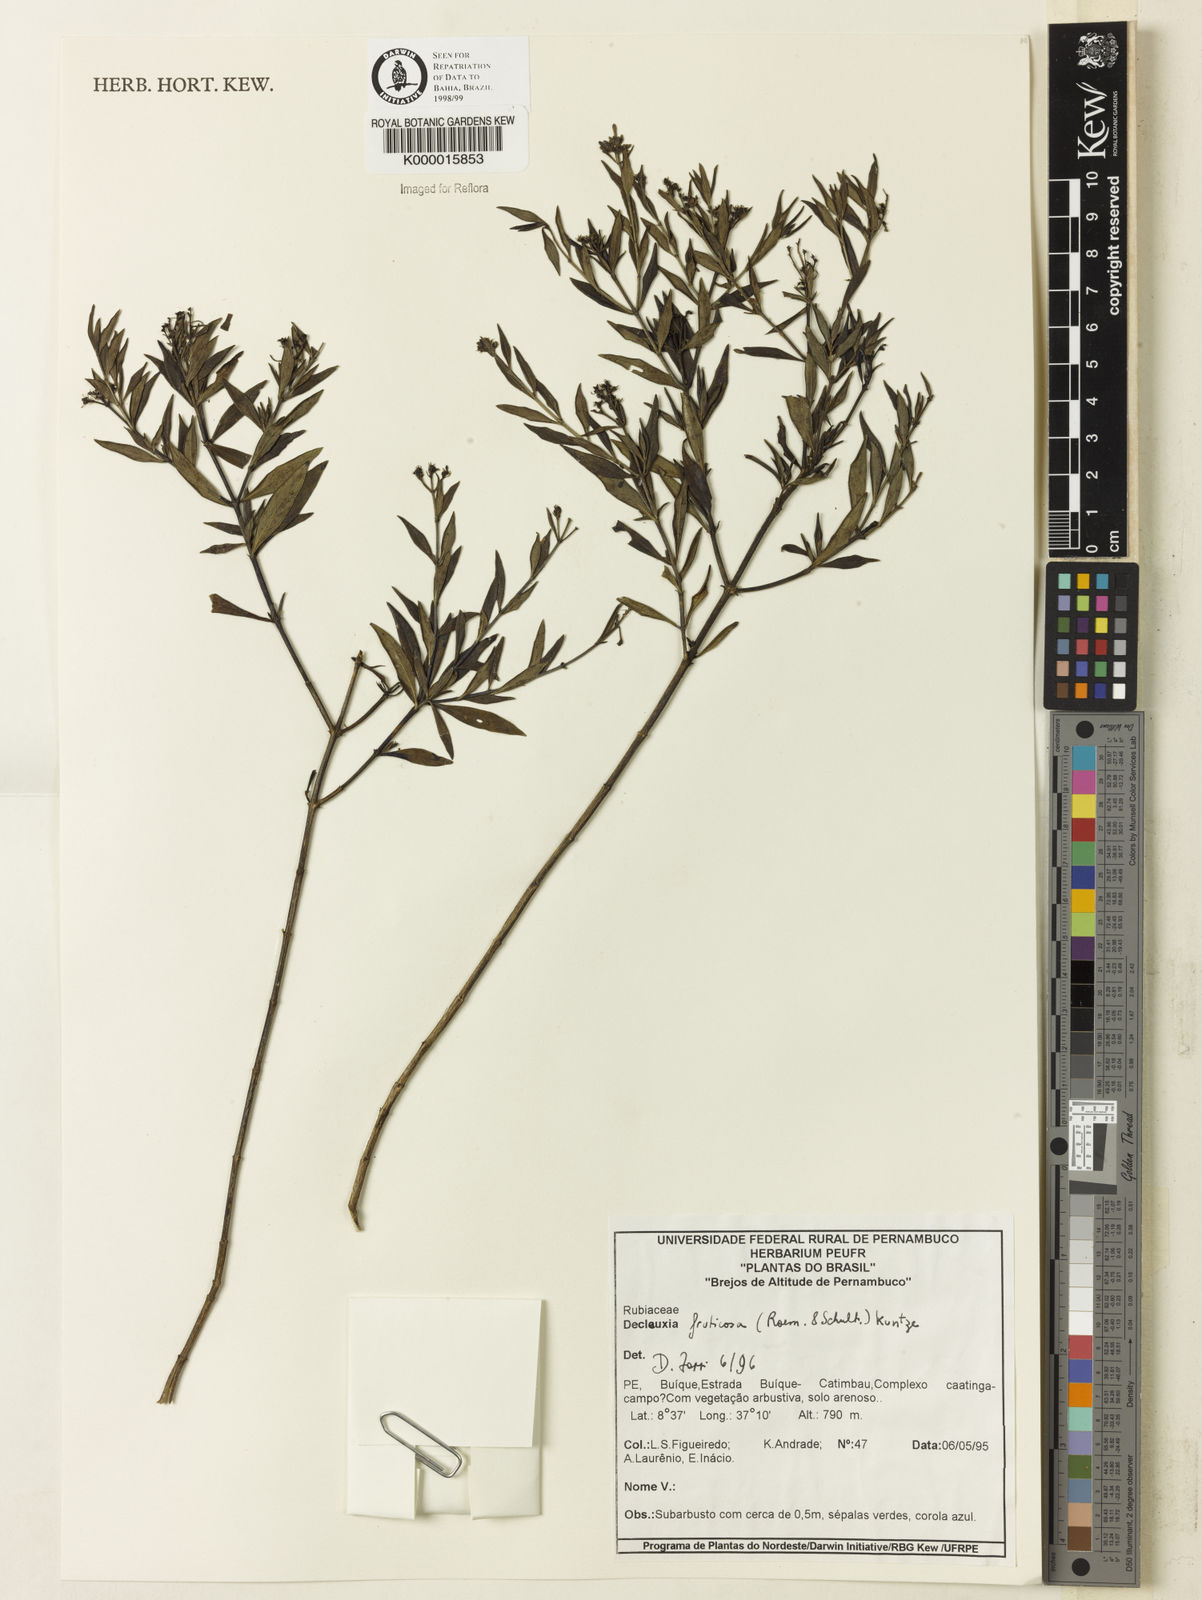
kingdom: Plantae
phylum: Tracheophyta
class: Magnoliopsida
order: Gentianales
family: Rubiaceae
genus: Declieuxia
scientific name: Declieuxia fruticosa
